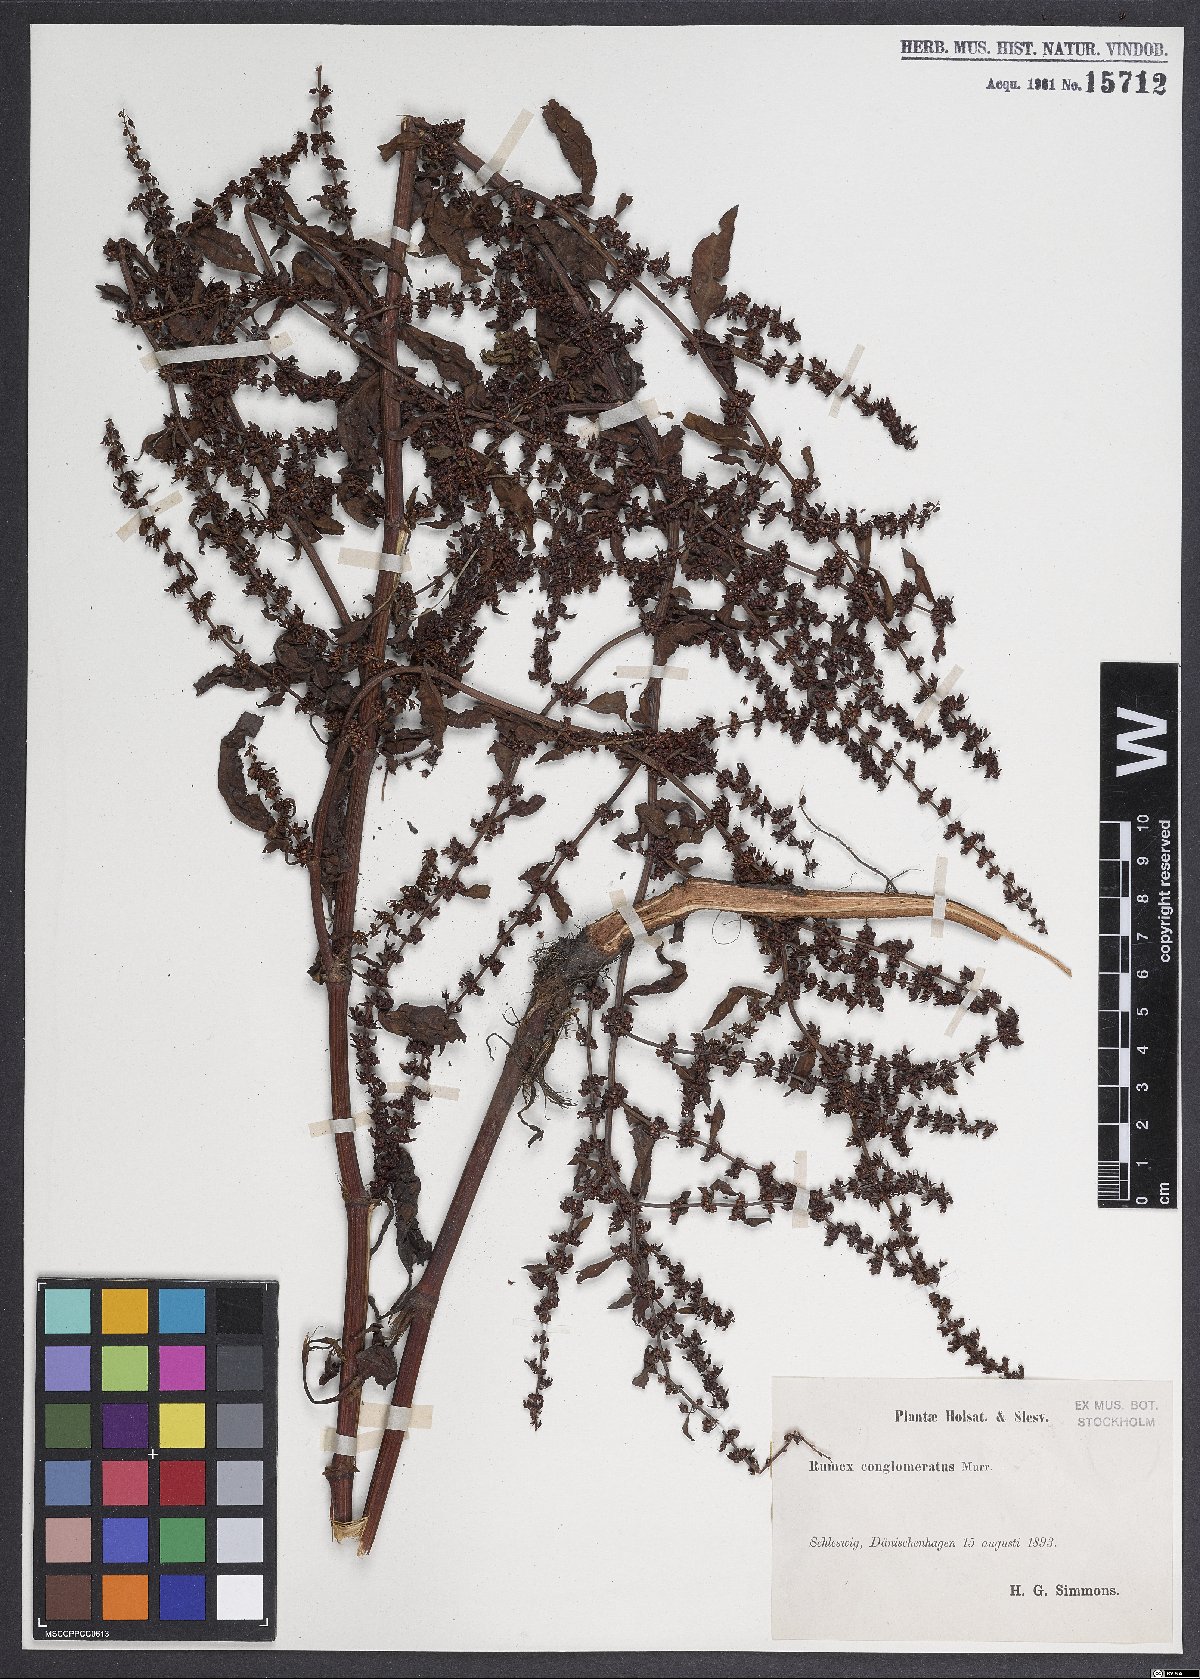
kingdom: Plantae
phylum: Tracheophyta
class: Magnoliopsida
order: Caryophyllales
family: Polygonaceae
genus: Rumex
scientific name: Rumex conglomeratus
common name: Clustered dock
